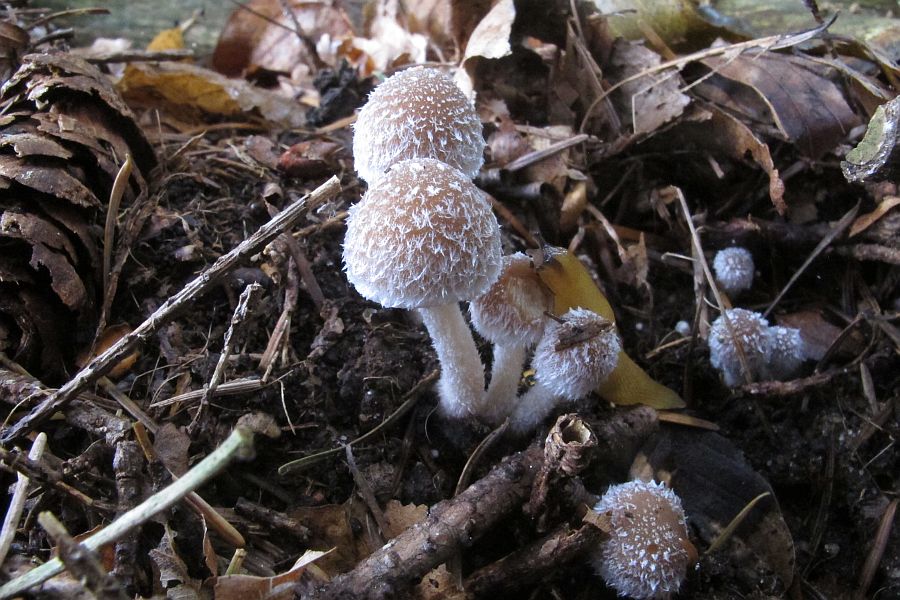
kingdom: Fungi
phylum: Basidiomycota
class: Agaricomycetes
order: Agaricales
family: Psathyrellaceae
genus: Psathyrella
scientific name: Psathyrella impexa
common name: rødmende mørkhat
